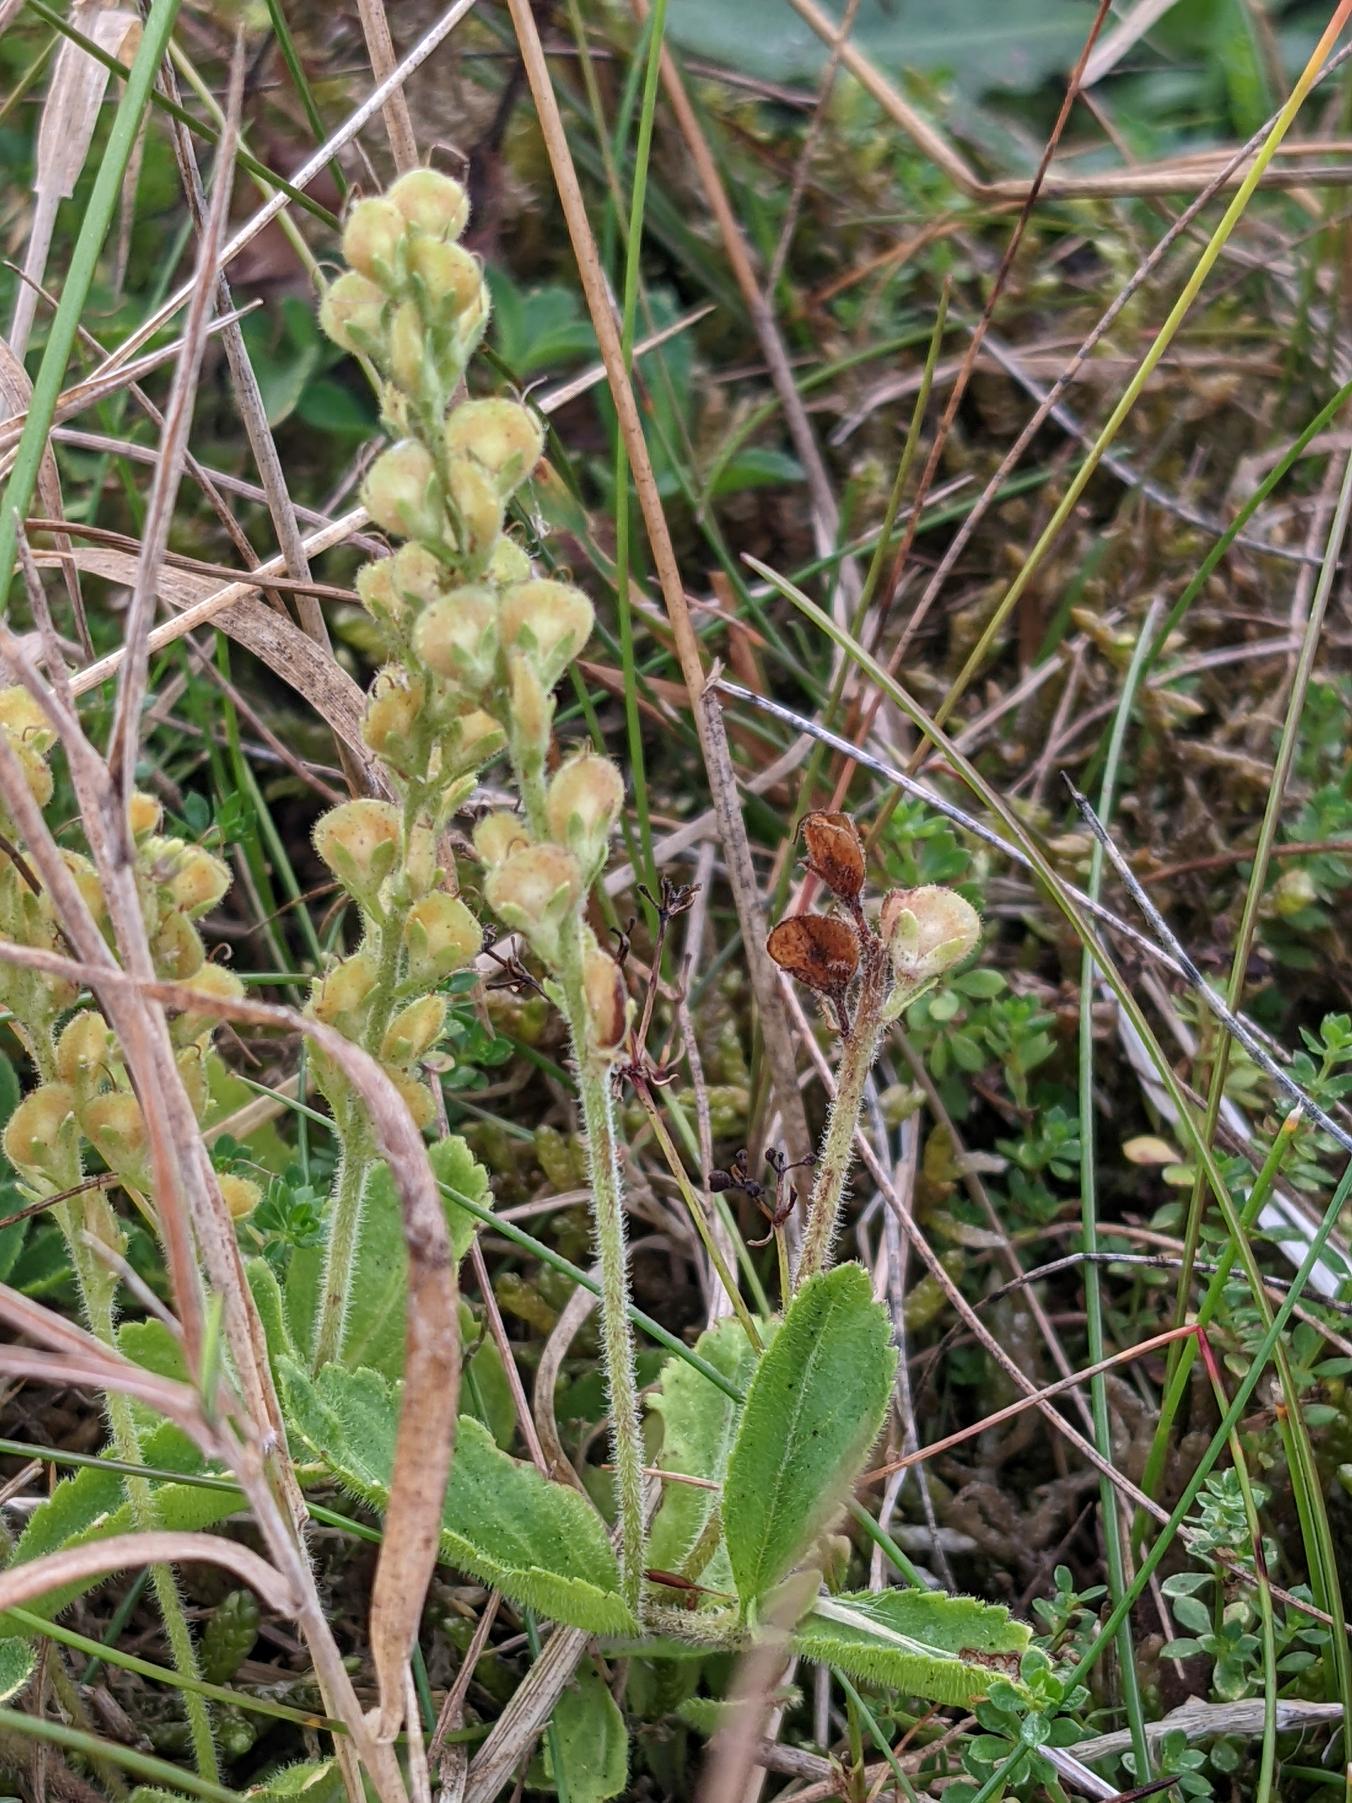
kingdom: Plantae
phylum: Tracheophyta
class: Magnoliopsida
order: Lamiales
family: Plantaginaceae
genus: Veronica
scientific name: Veronica officinalis
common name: Læge-ærenpris
